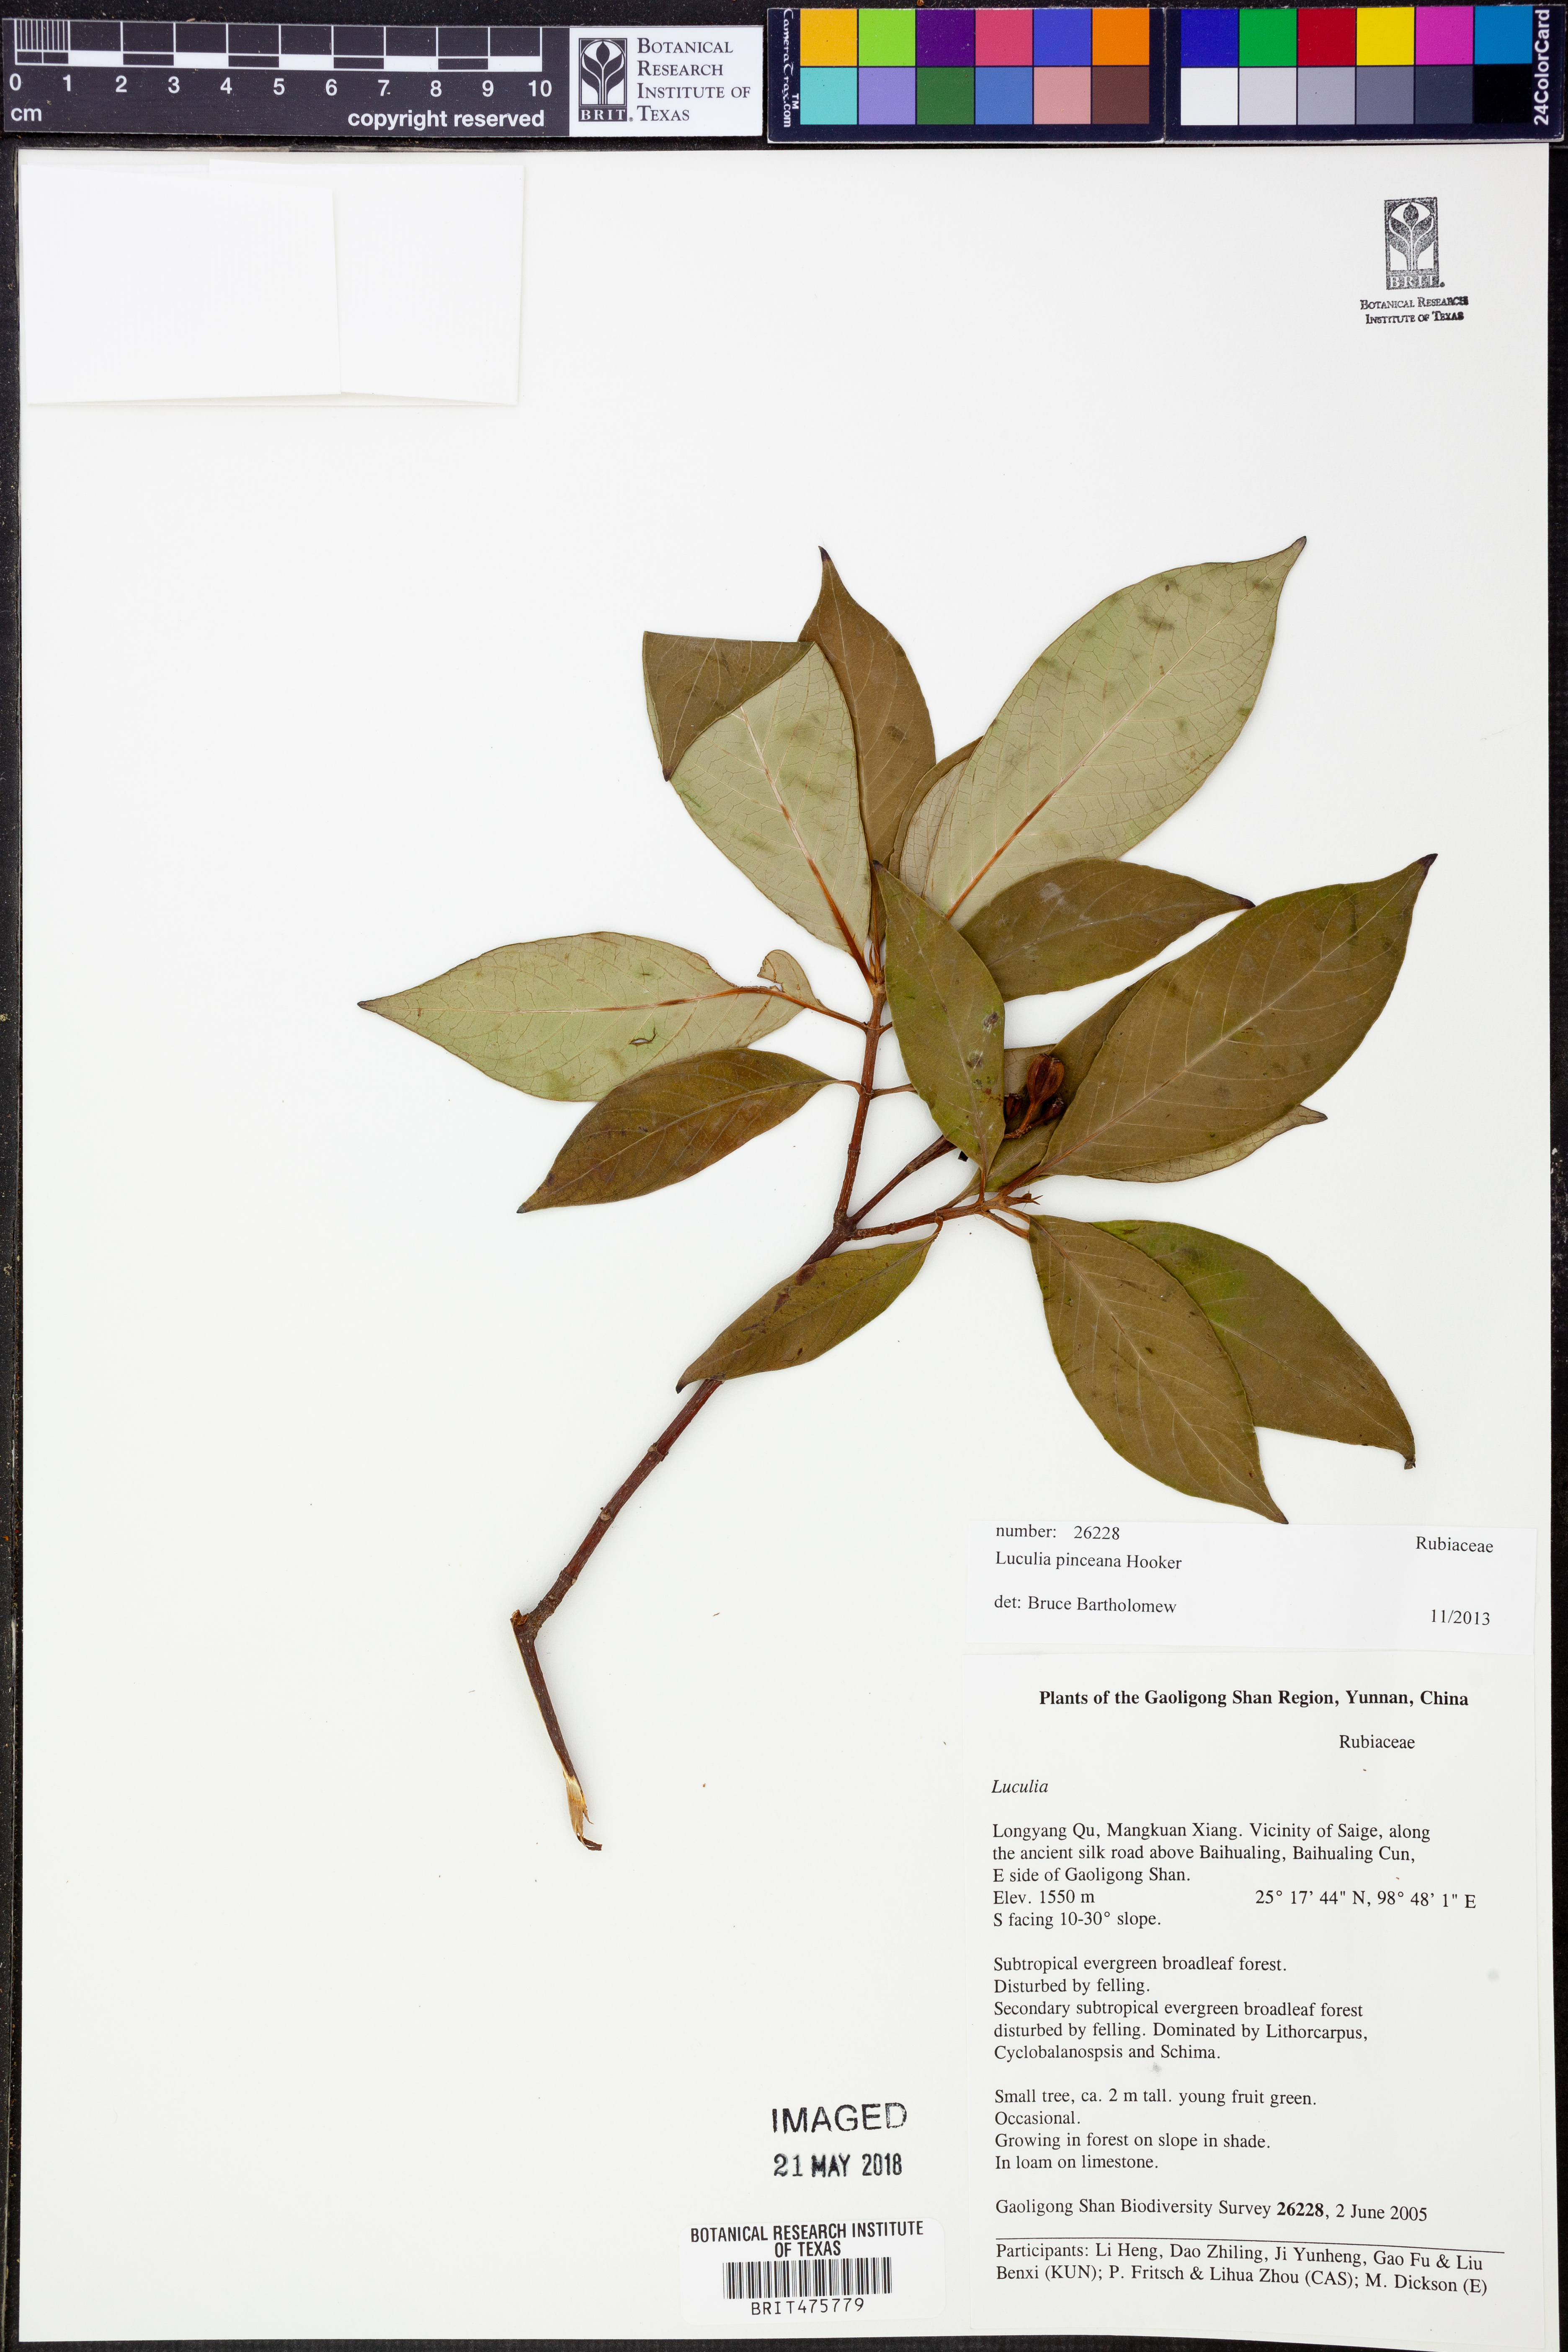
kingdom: Plantae
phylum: Tracheophyta
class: Magnoliopsida
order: Gentianales
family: Rubiaceae
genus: Luculia
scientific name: Luculia pinceana
